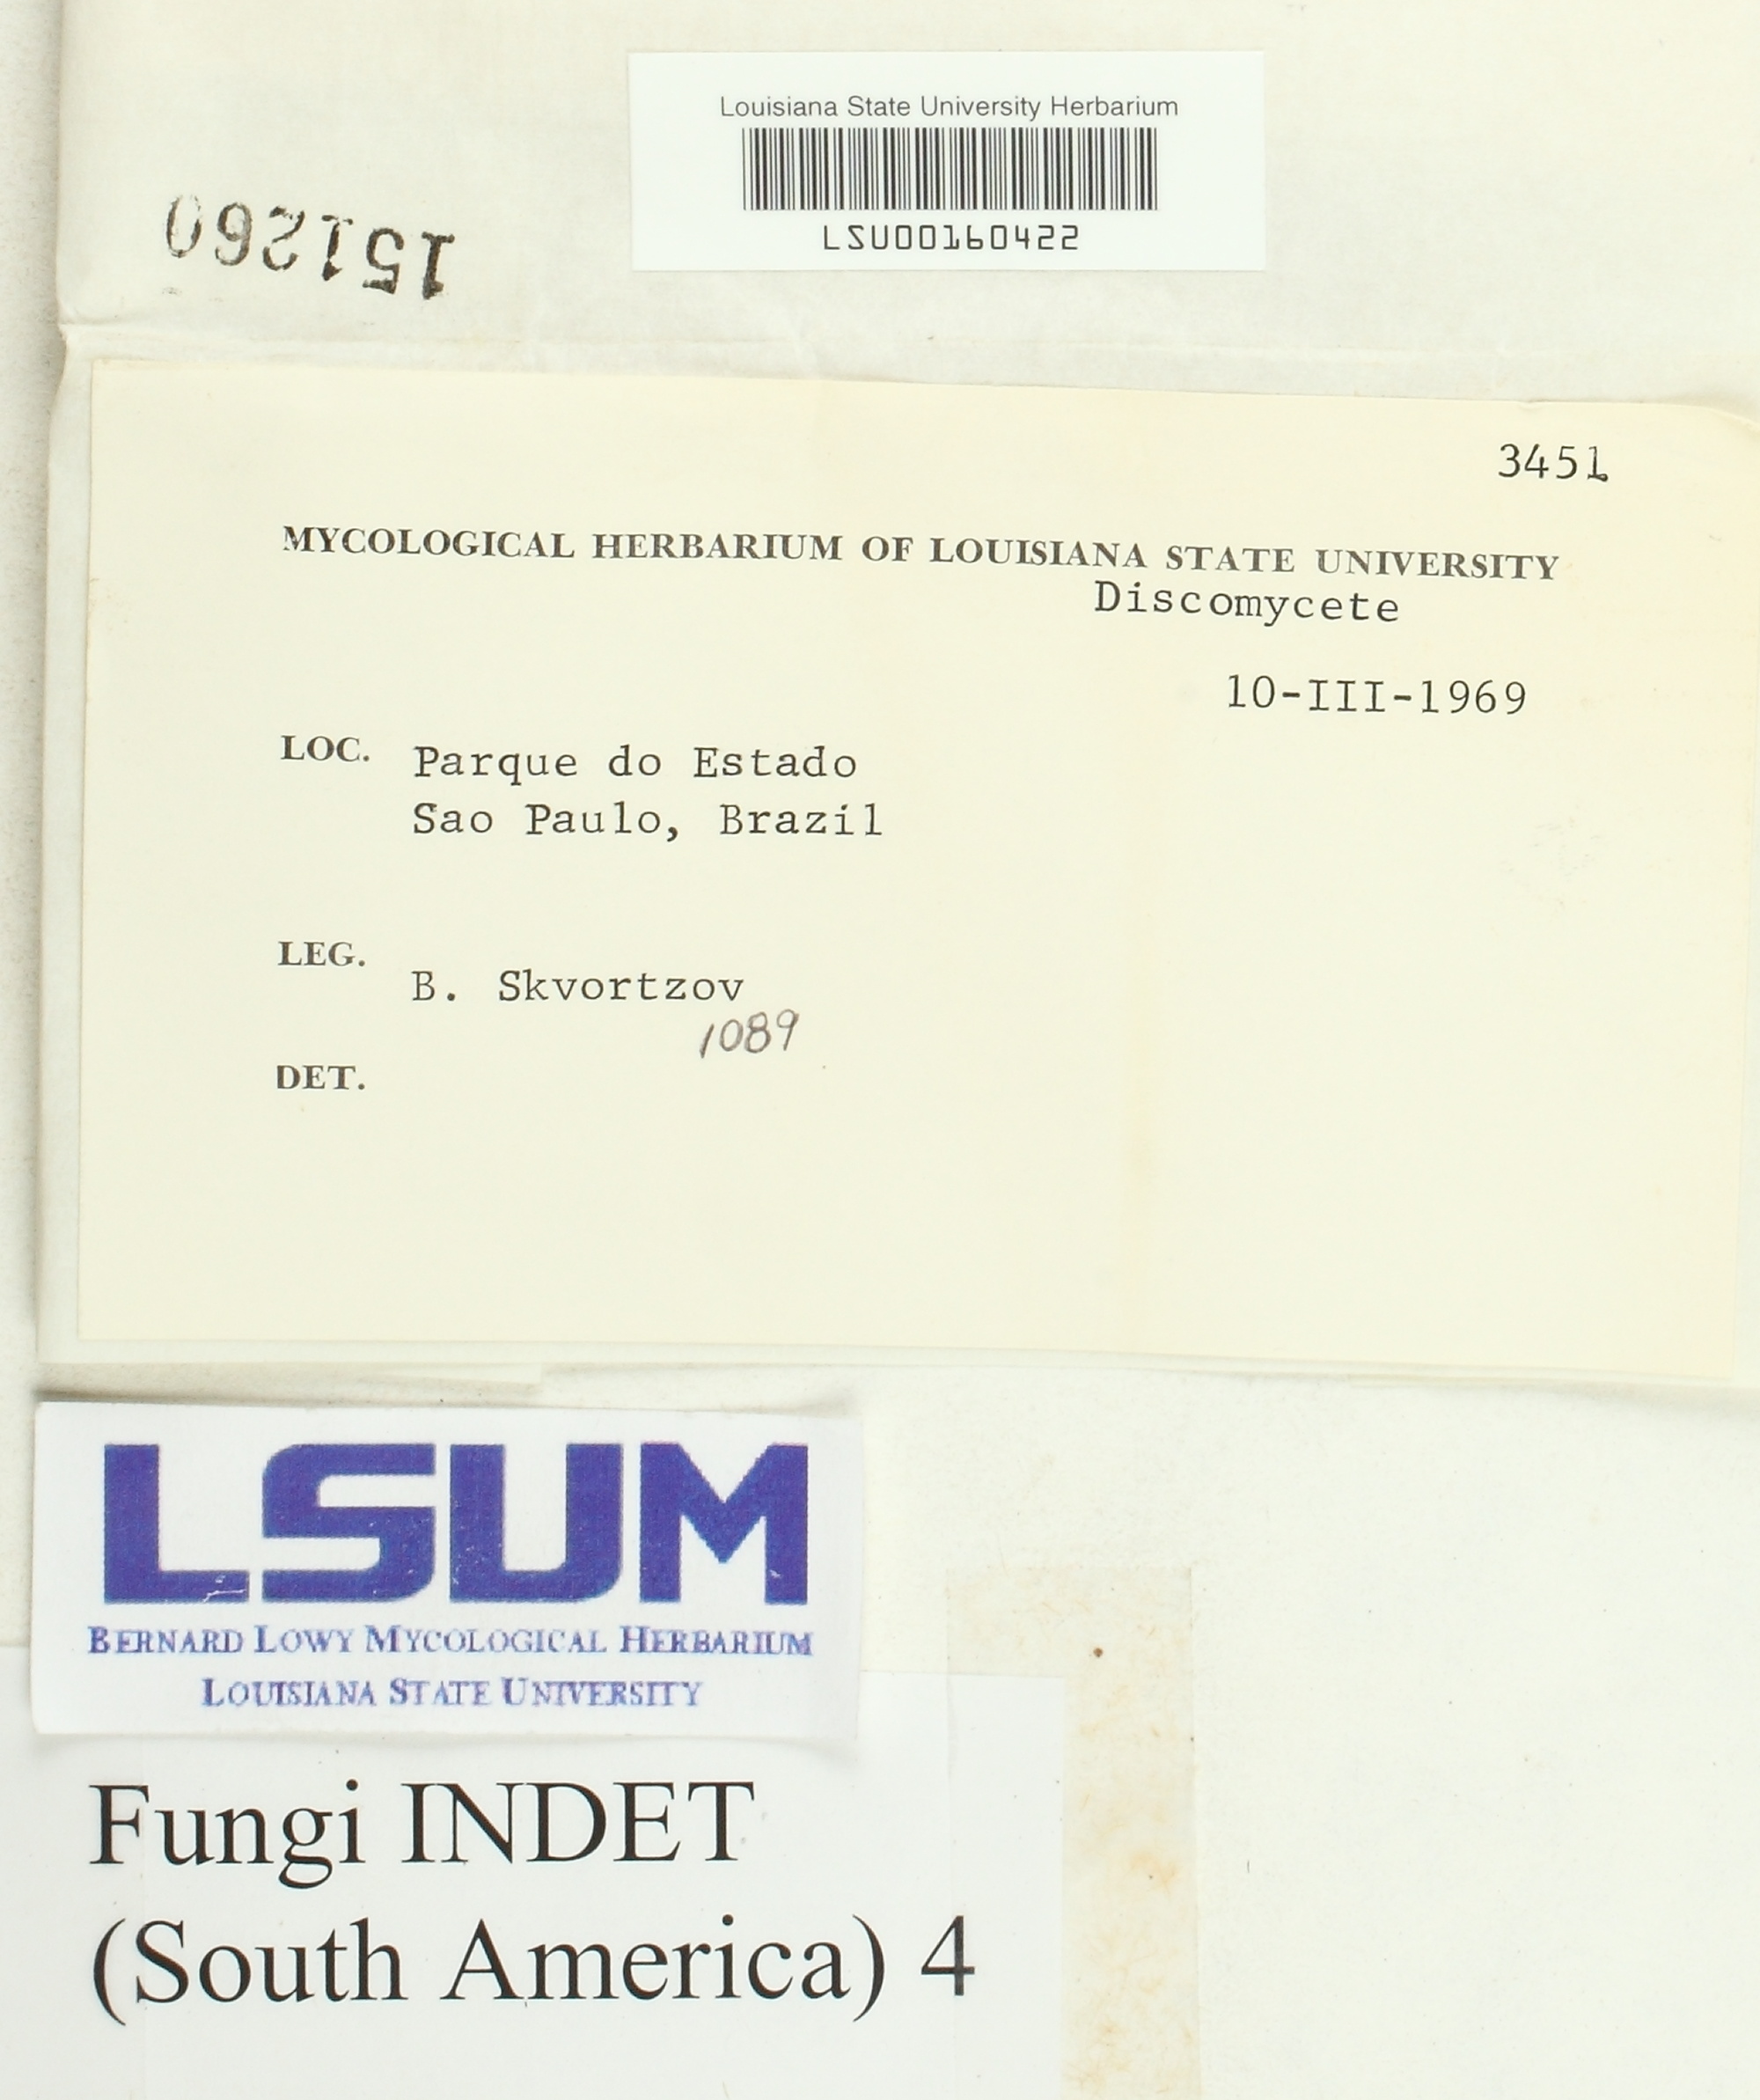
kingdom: Fungi
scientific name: Fungi
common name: Fungi
